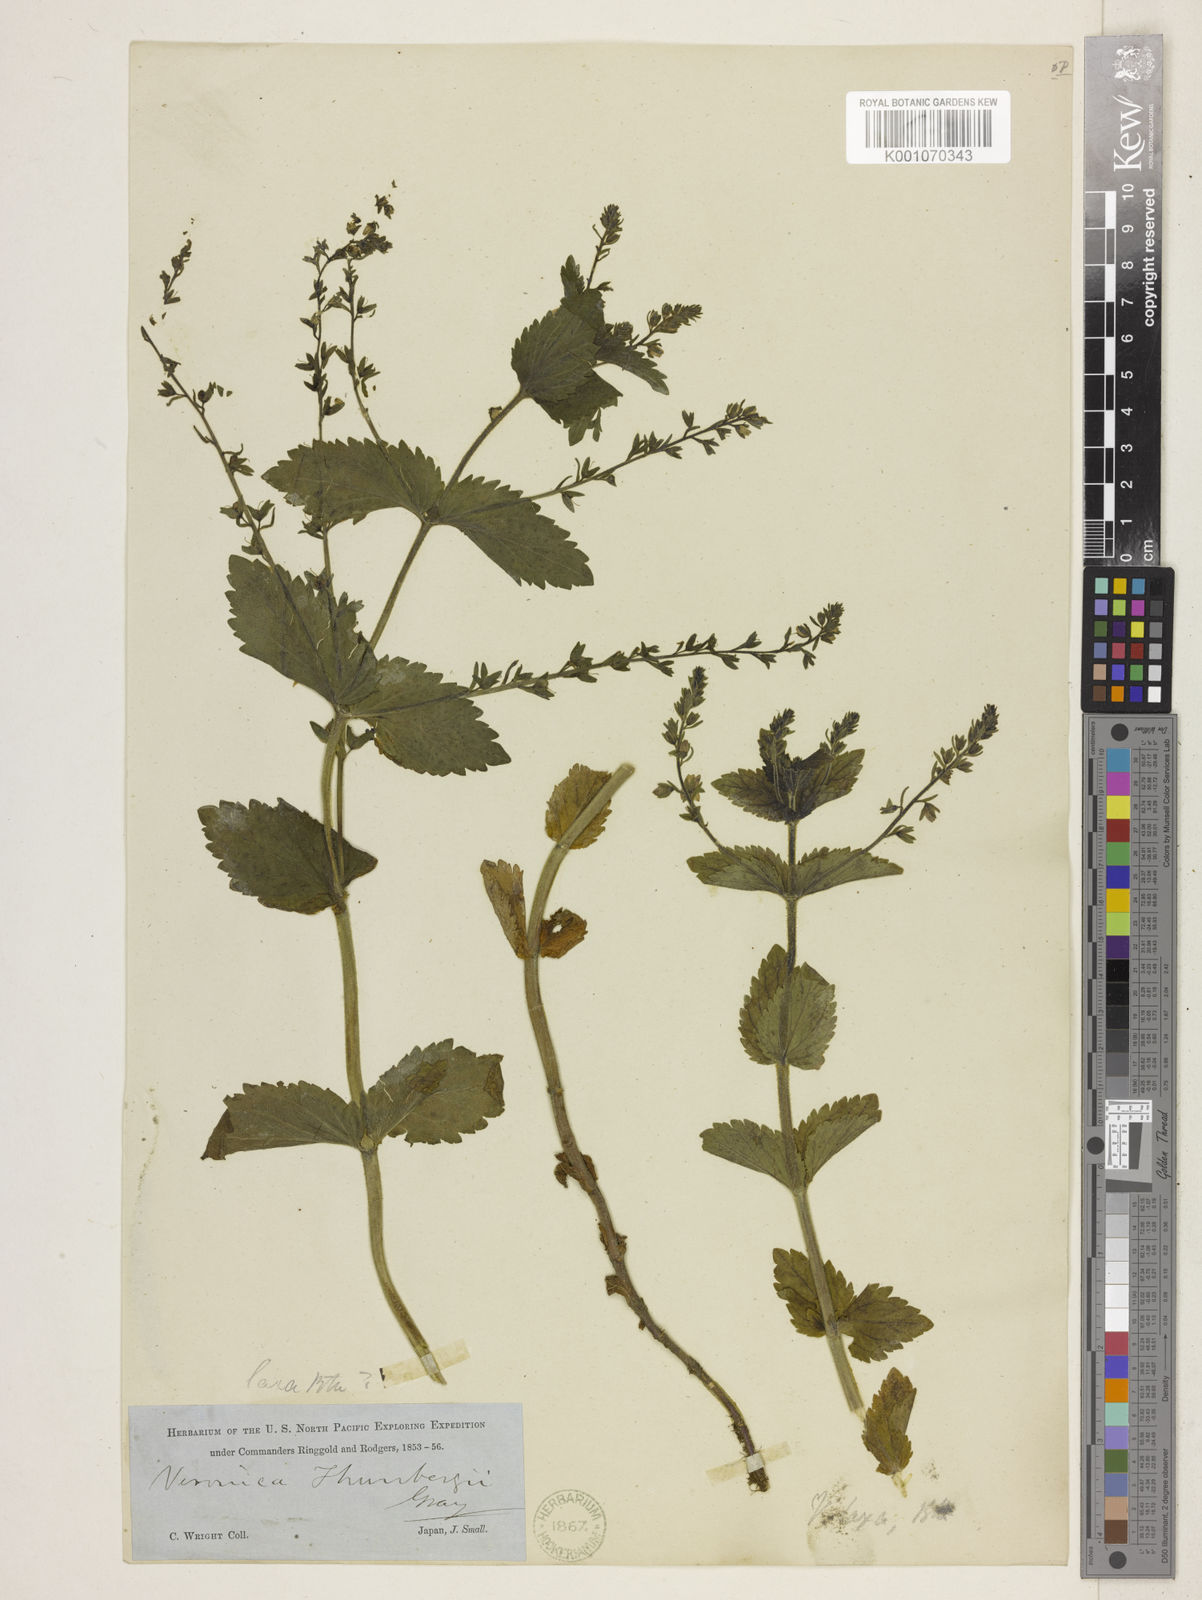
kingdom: Plantae
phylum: Tracheophyta
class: Magnoliopsida
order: Lamiales
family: Plantaginaceae
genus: Veronica
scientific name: Veronica laxa
